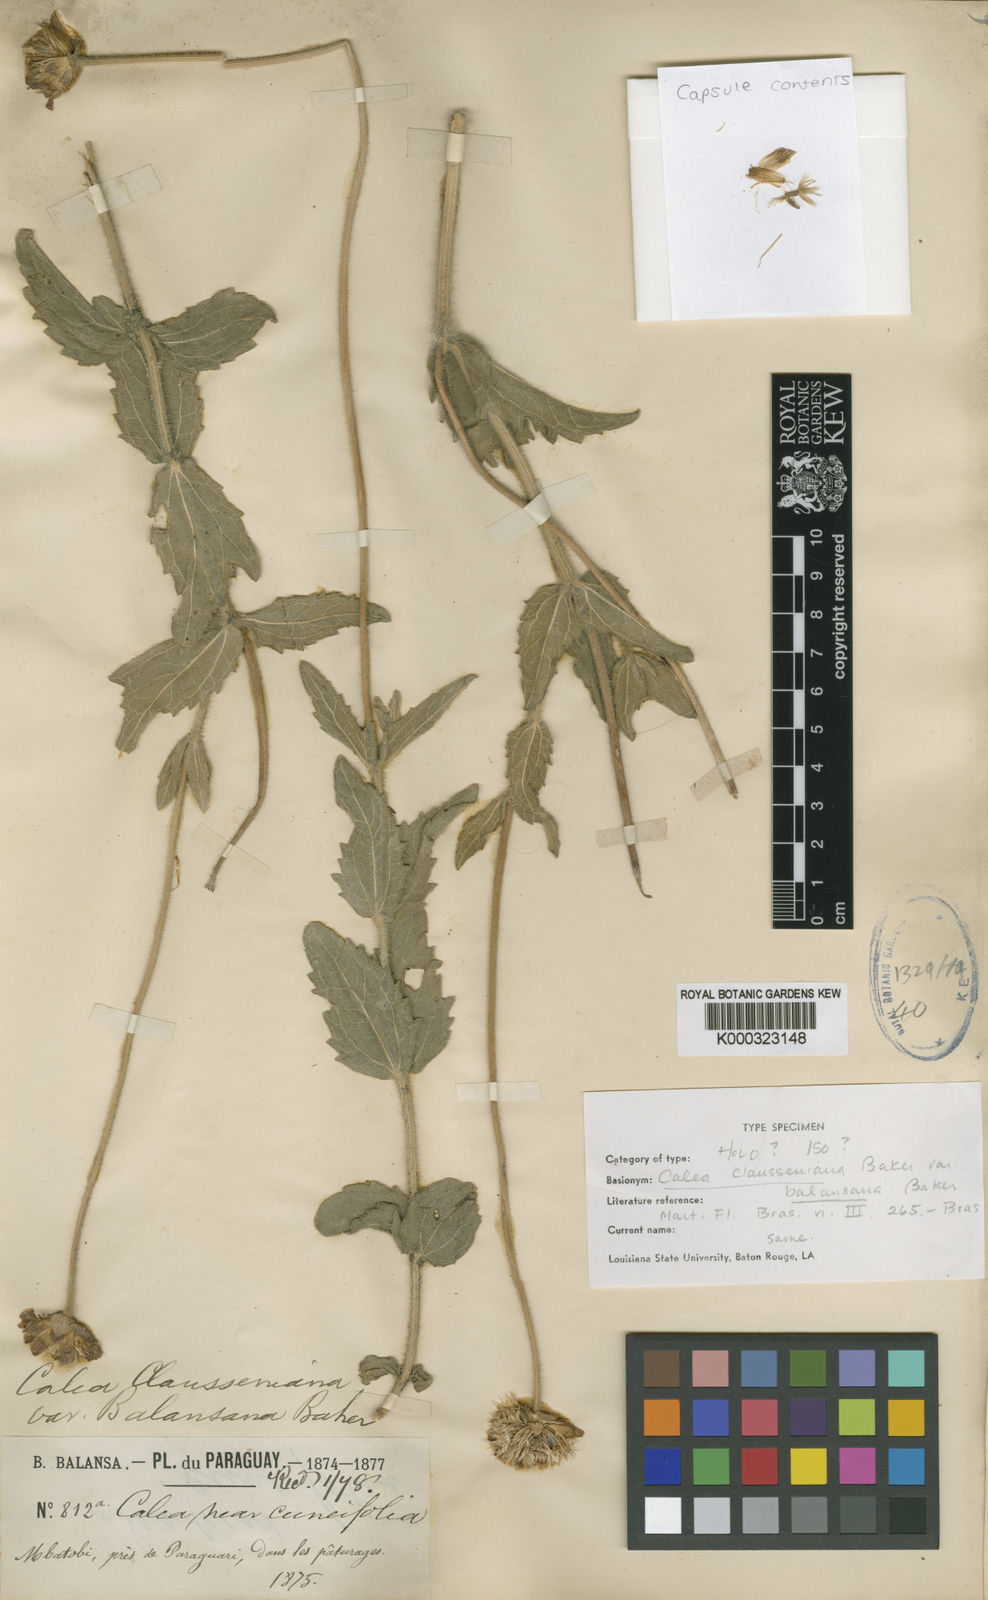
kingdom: Plantae
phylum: Tracheophyta
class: Magnoliopsida
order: Asterales
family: Asteraceae
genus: Calea
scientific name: Calea cuneifolia
